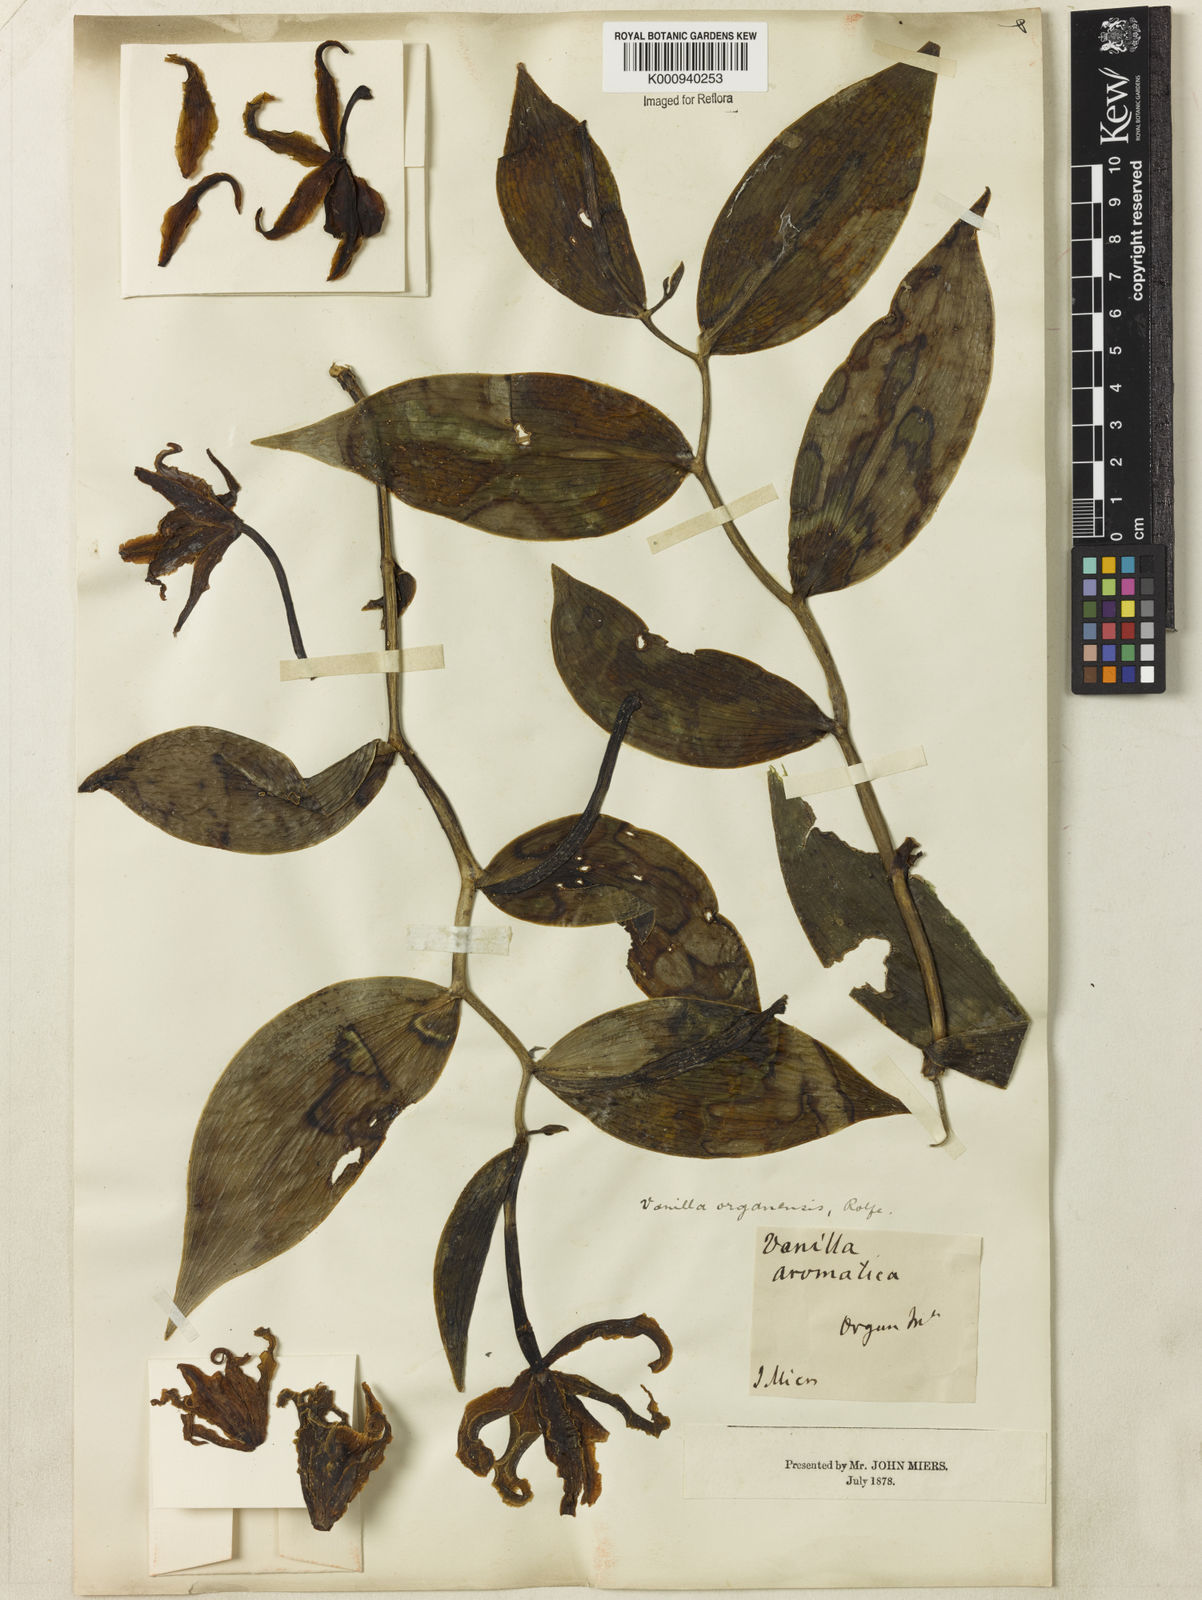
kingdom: Plantae
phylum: Tracheophyta
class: Liliopsida
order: Asparagales
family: Orchidaceae
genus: Vanilla
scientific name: Vanilla organensis
